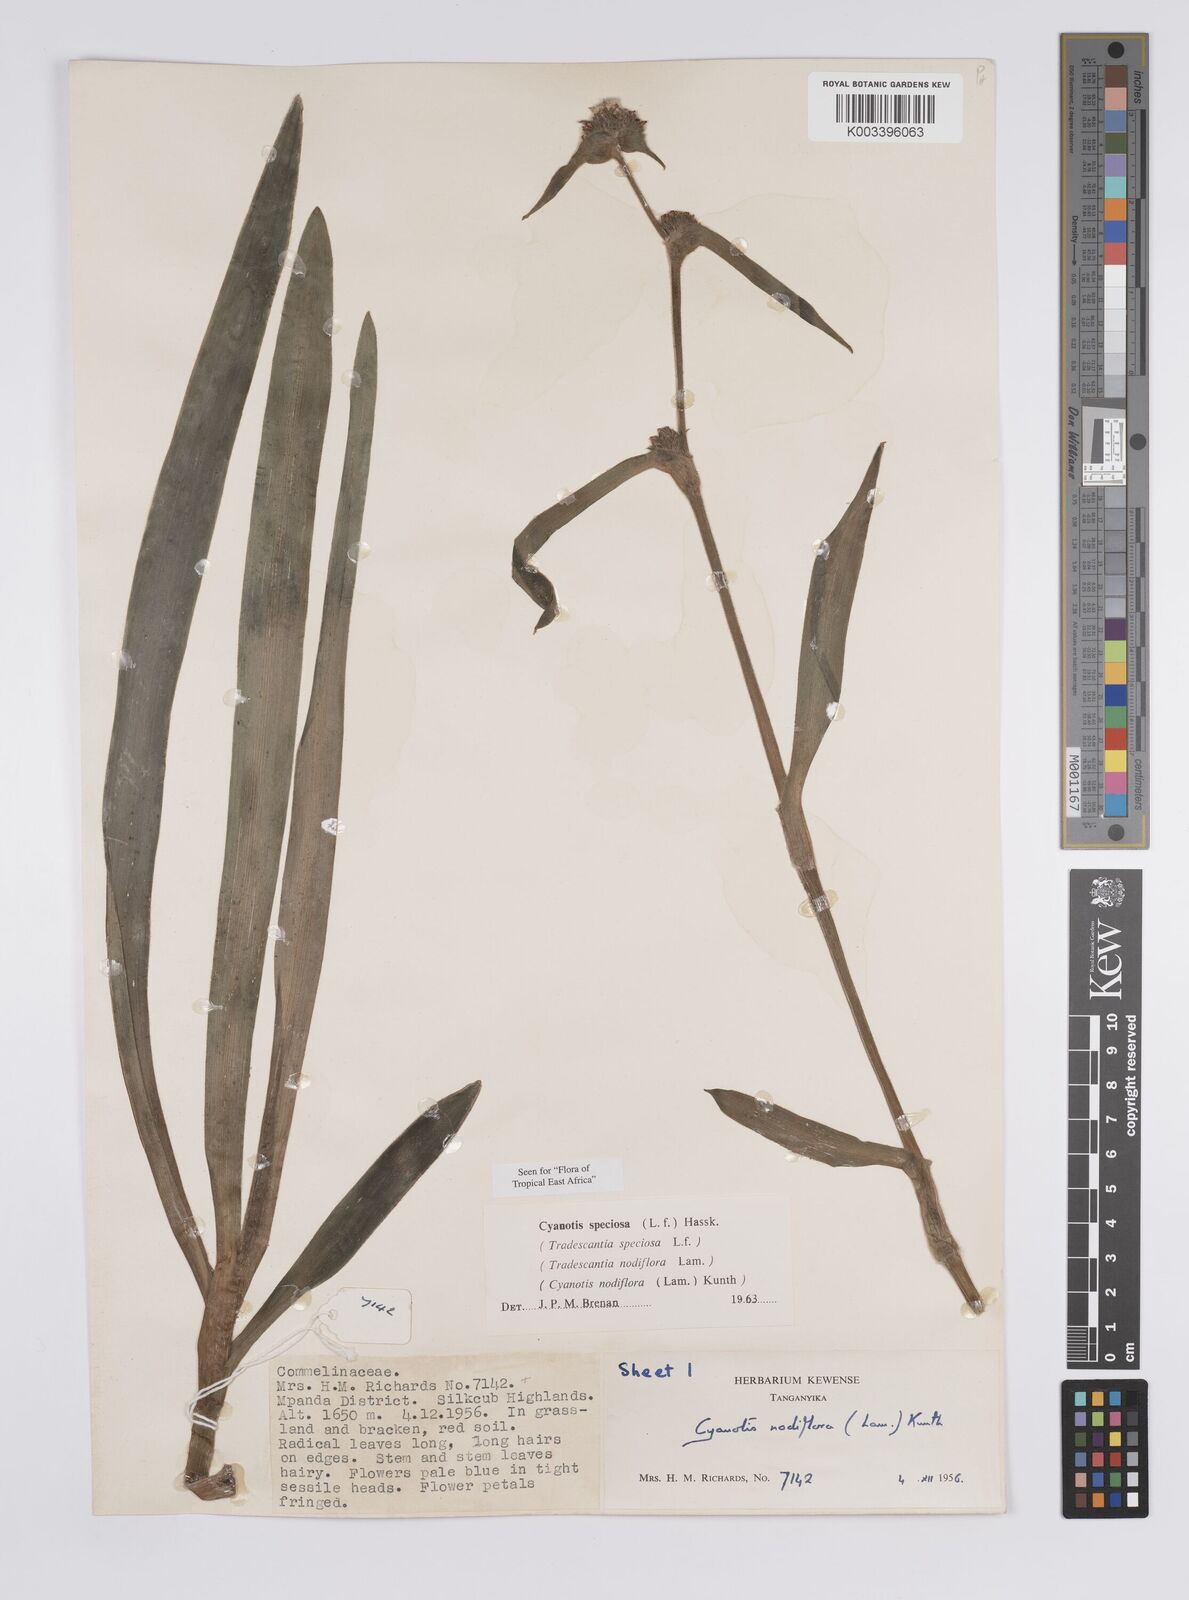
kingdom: Plantae
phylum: Tracheophyta
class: Liliopsida
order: Commelinales
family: Commelinaceae
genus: Cyanotis
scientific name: Cyanotis speciosa
